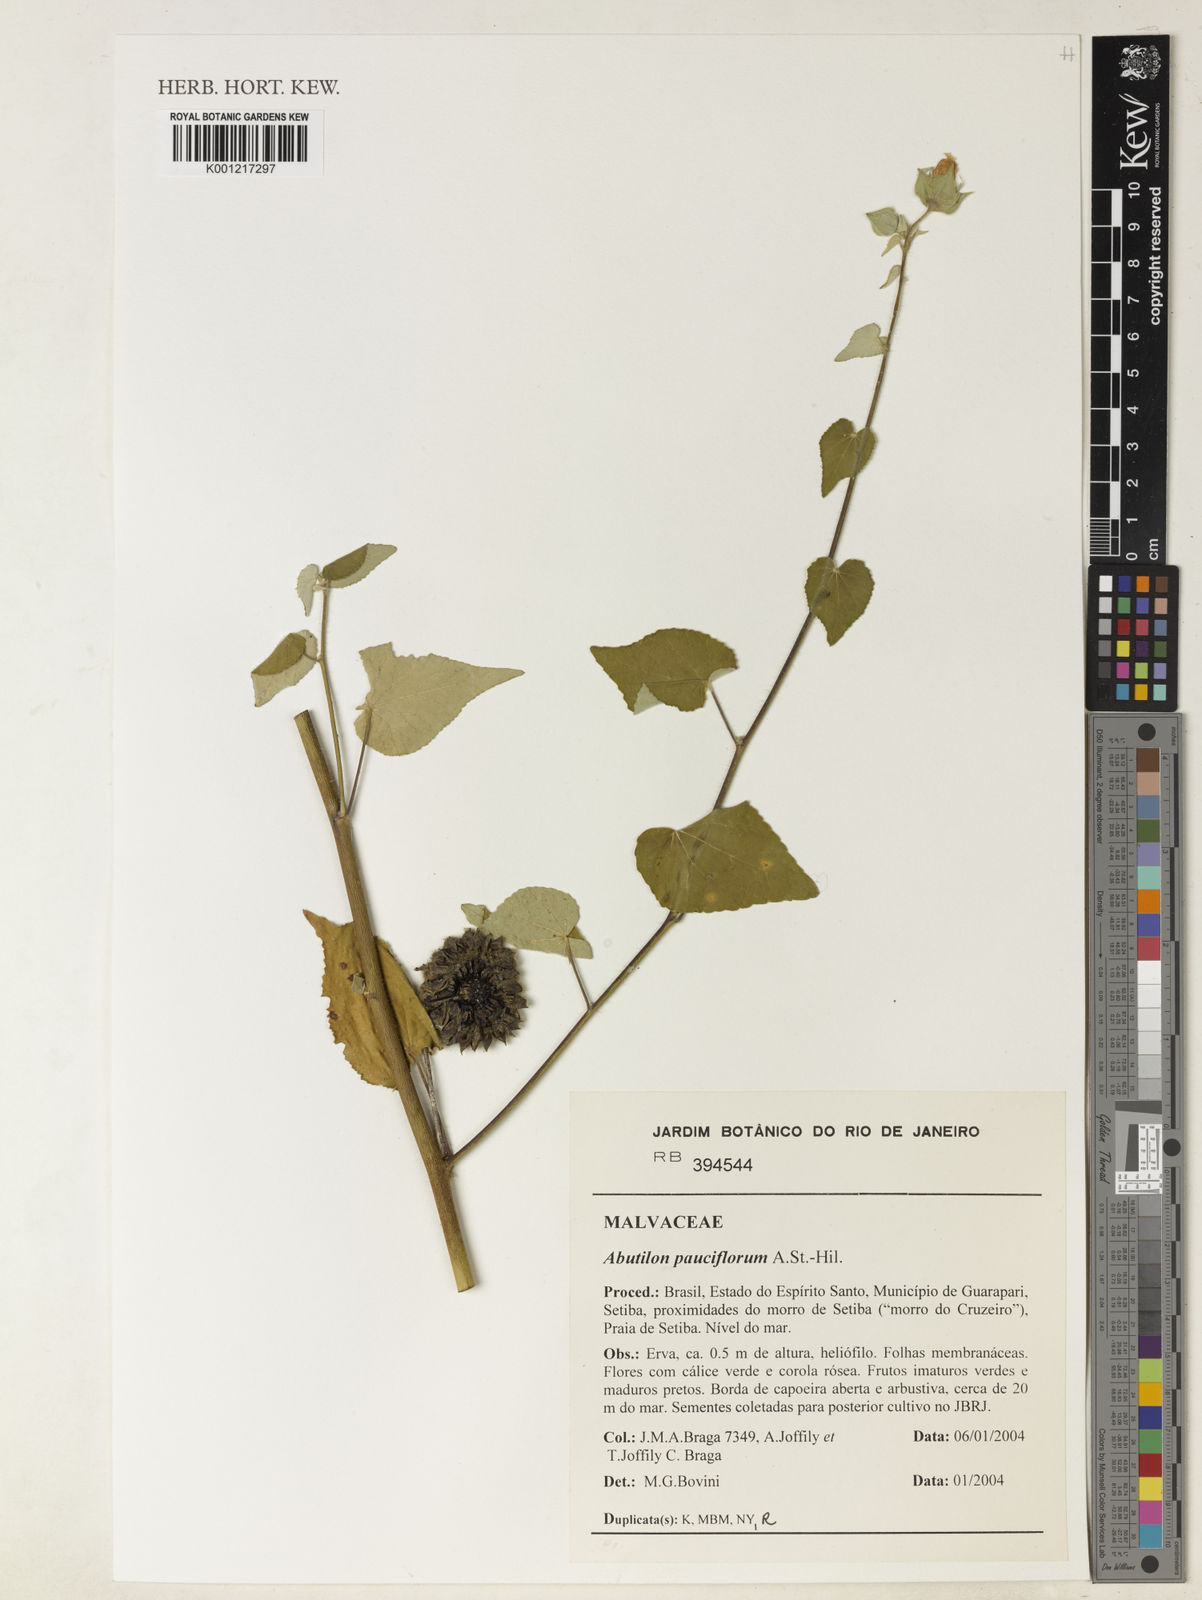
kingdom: Plantae
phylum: Tracheophyta
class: Magnoliopsida
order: Malvales
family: Malvaceae
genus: Callianthe
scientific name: Callianthe pauciflora
